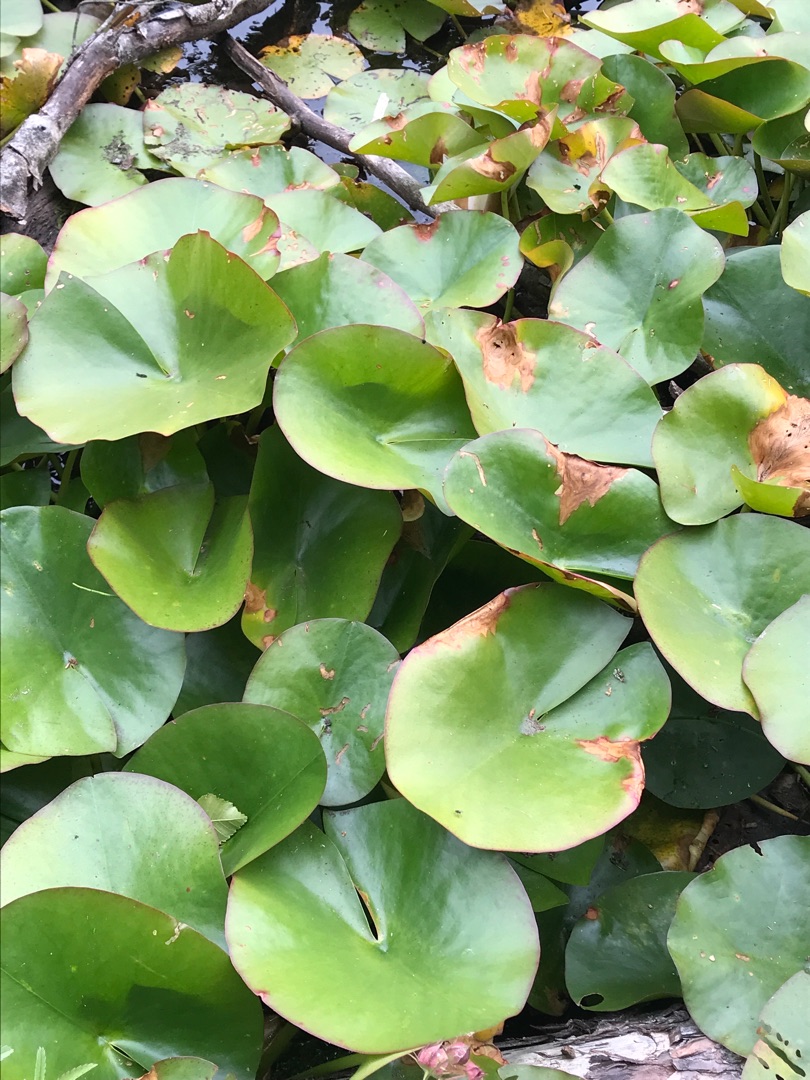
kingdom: Plantae
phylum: Tracheophyta
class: Magnoliopsida
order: Nymphaeales
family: Nymphaeaceae
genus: Nymphaea
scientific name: Nymphaea alba
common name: Hvid åkande
